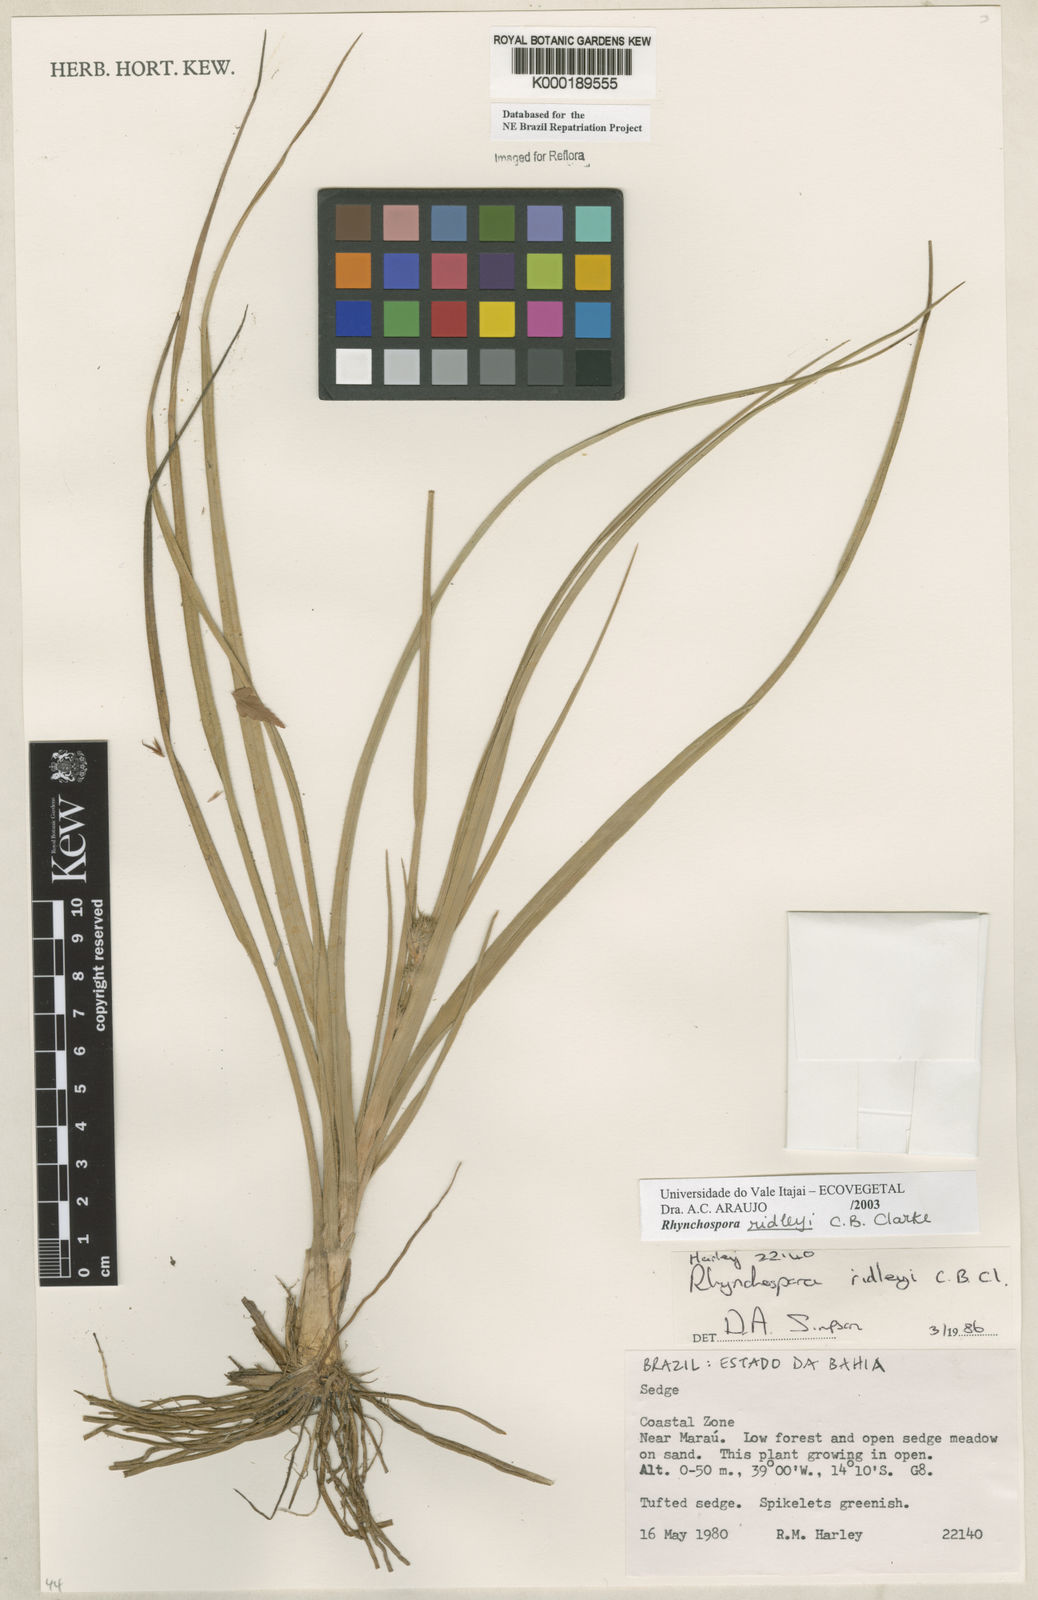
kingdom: Plantae
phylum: Tracheophyta
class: Liliopsida
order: Poales
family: Cyperaceae
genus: Rhynchospora
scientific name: Rhynchospora ridleyi
